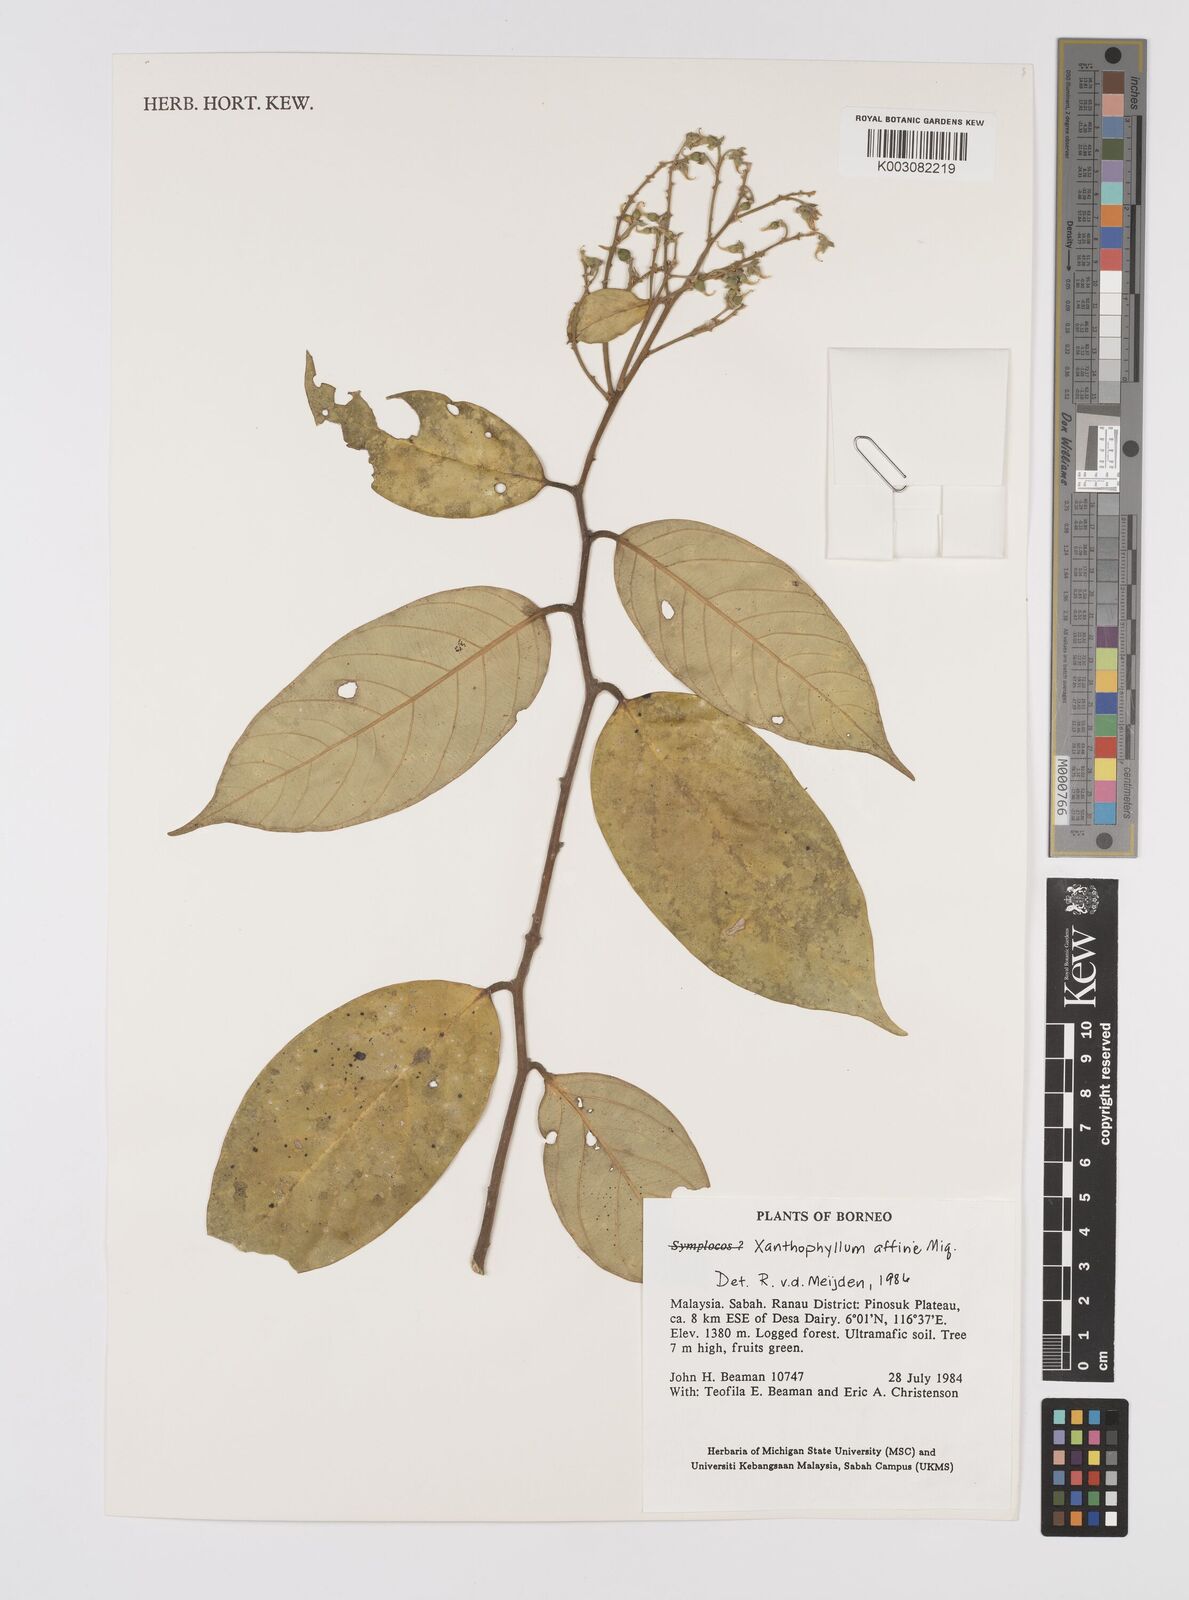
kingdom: Plantae
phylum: Tracheophyta
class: Magnoliopsida
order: Fabales
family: Polygalaceae
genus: Xanthophyllum
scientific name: Xanthophyllum flavescens
